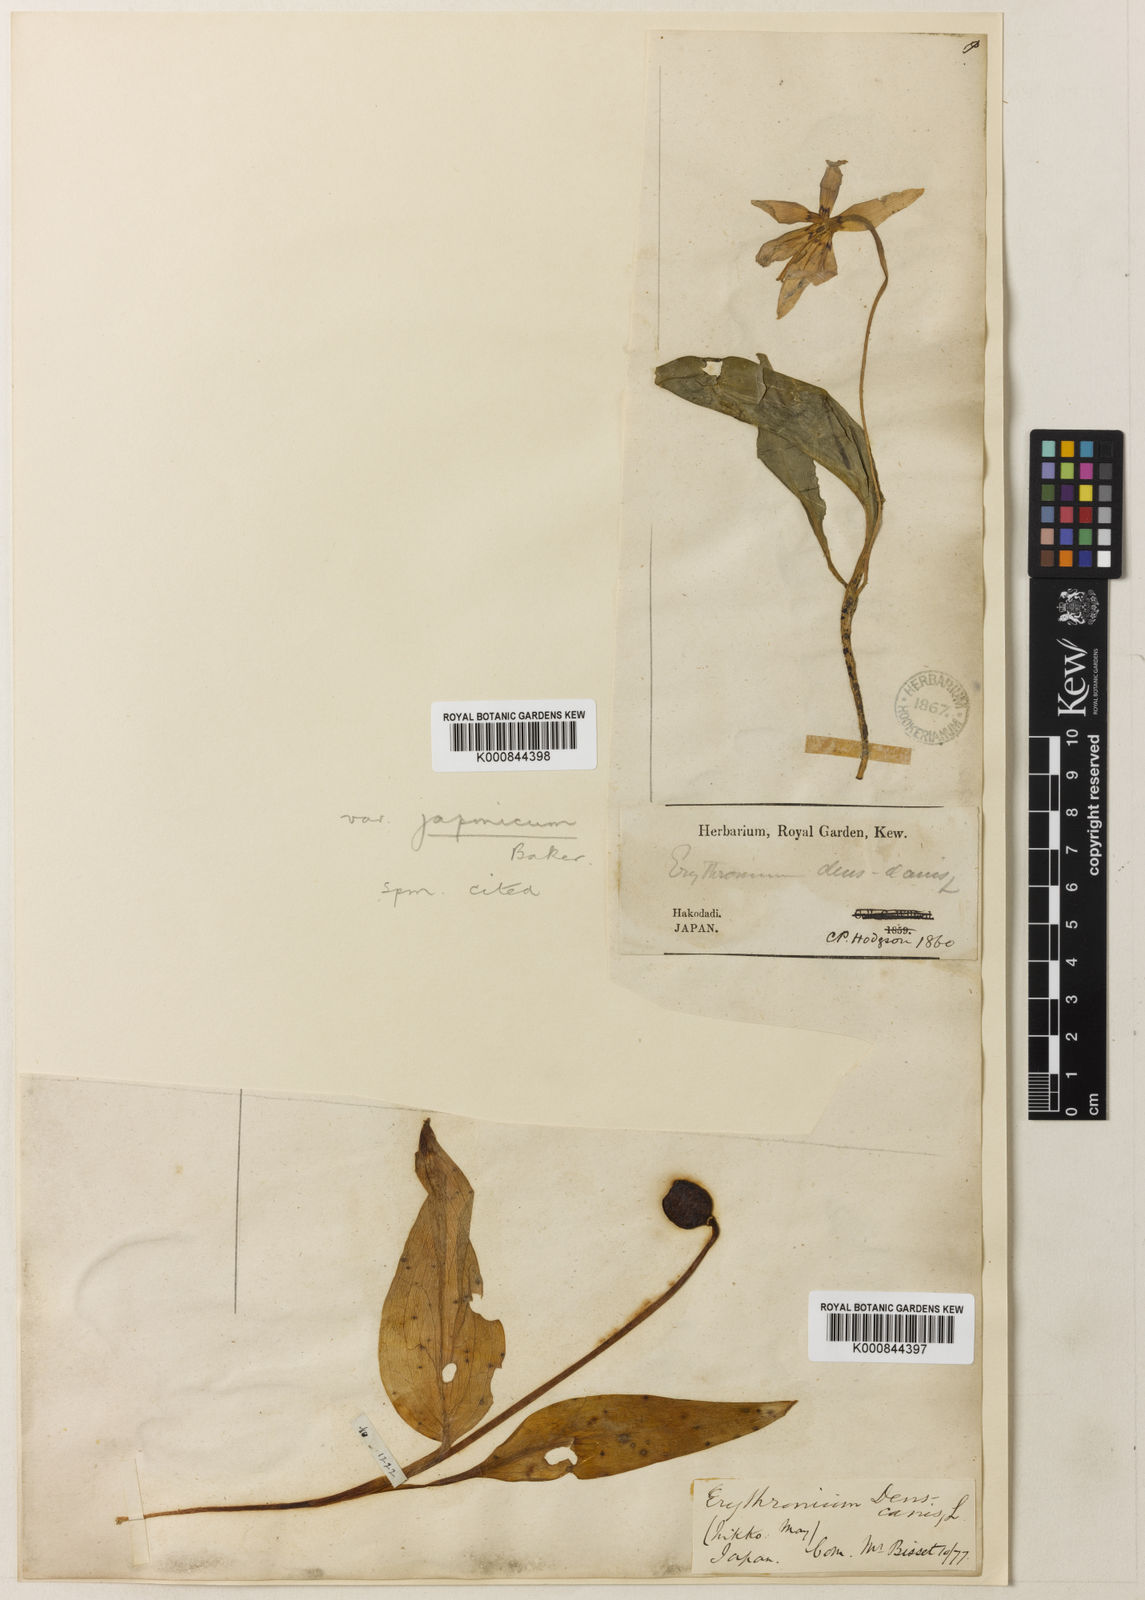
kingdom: Plantae
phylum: Tracheophyta
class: Liliopsida
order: Liliales
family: Liliaceae
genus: Erythronium
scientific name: Erythronium dens-canis
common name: Dog's-tooth-violet
